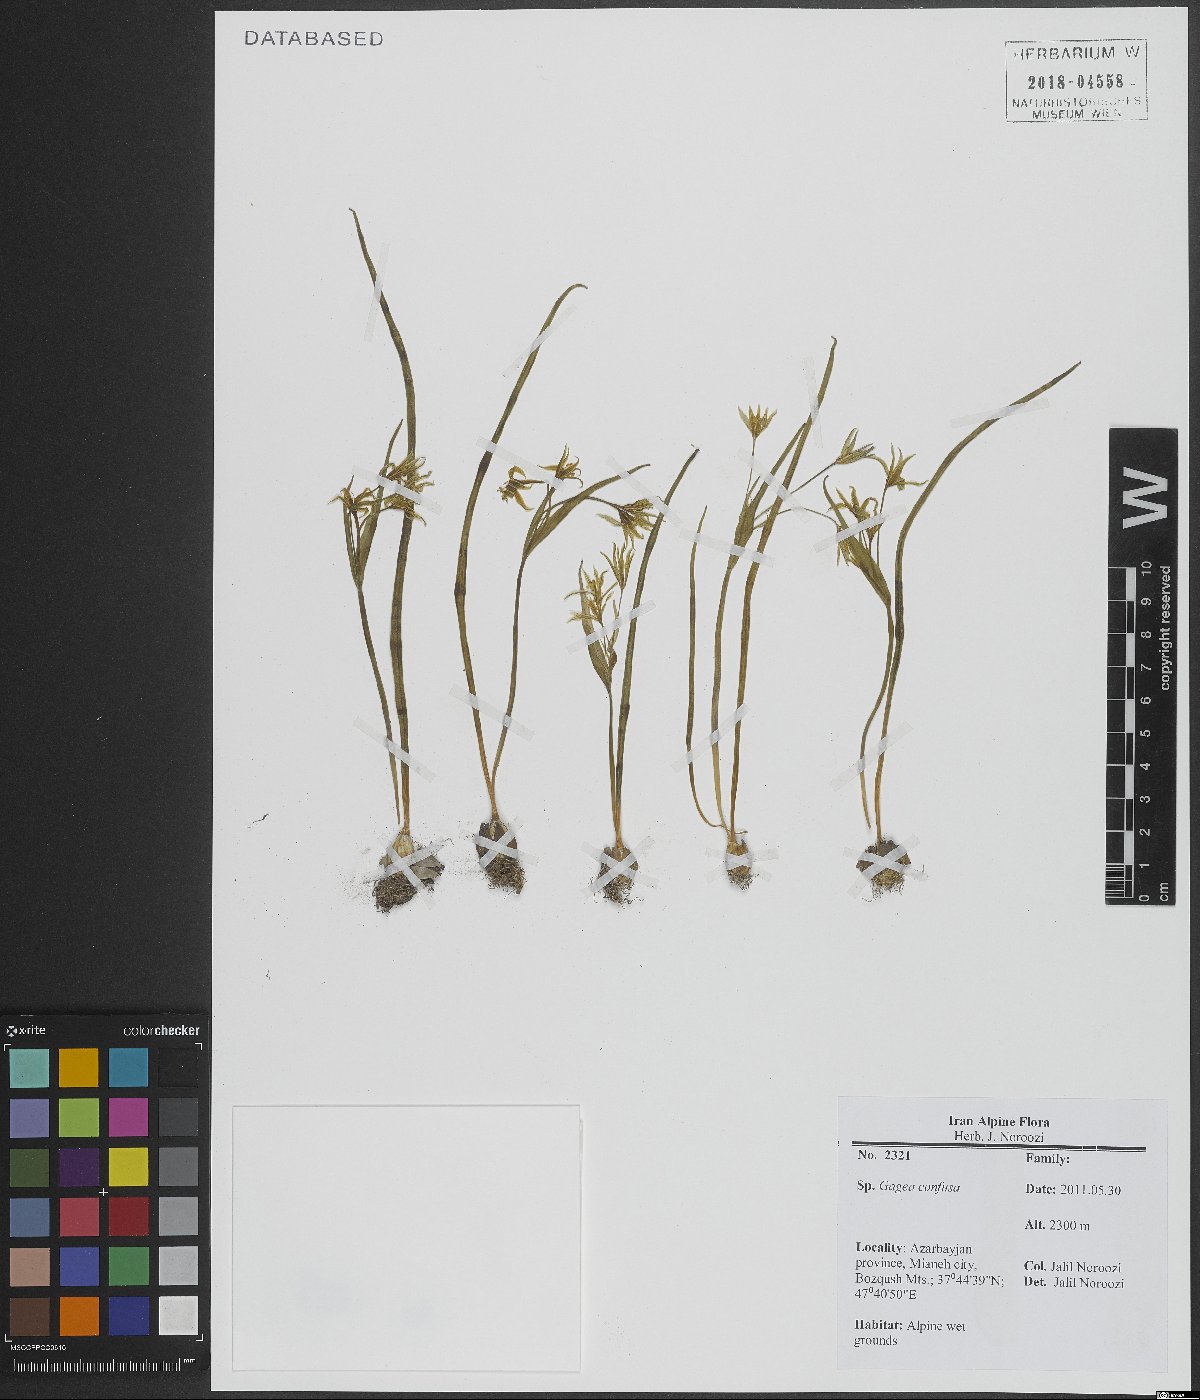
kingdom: Plantae
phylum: Tracheophyta
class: Liliopsida
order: Liliales
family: Liliaceae
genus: Gagea
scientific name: Gagea confusa
